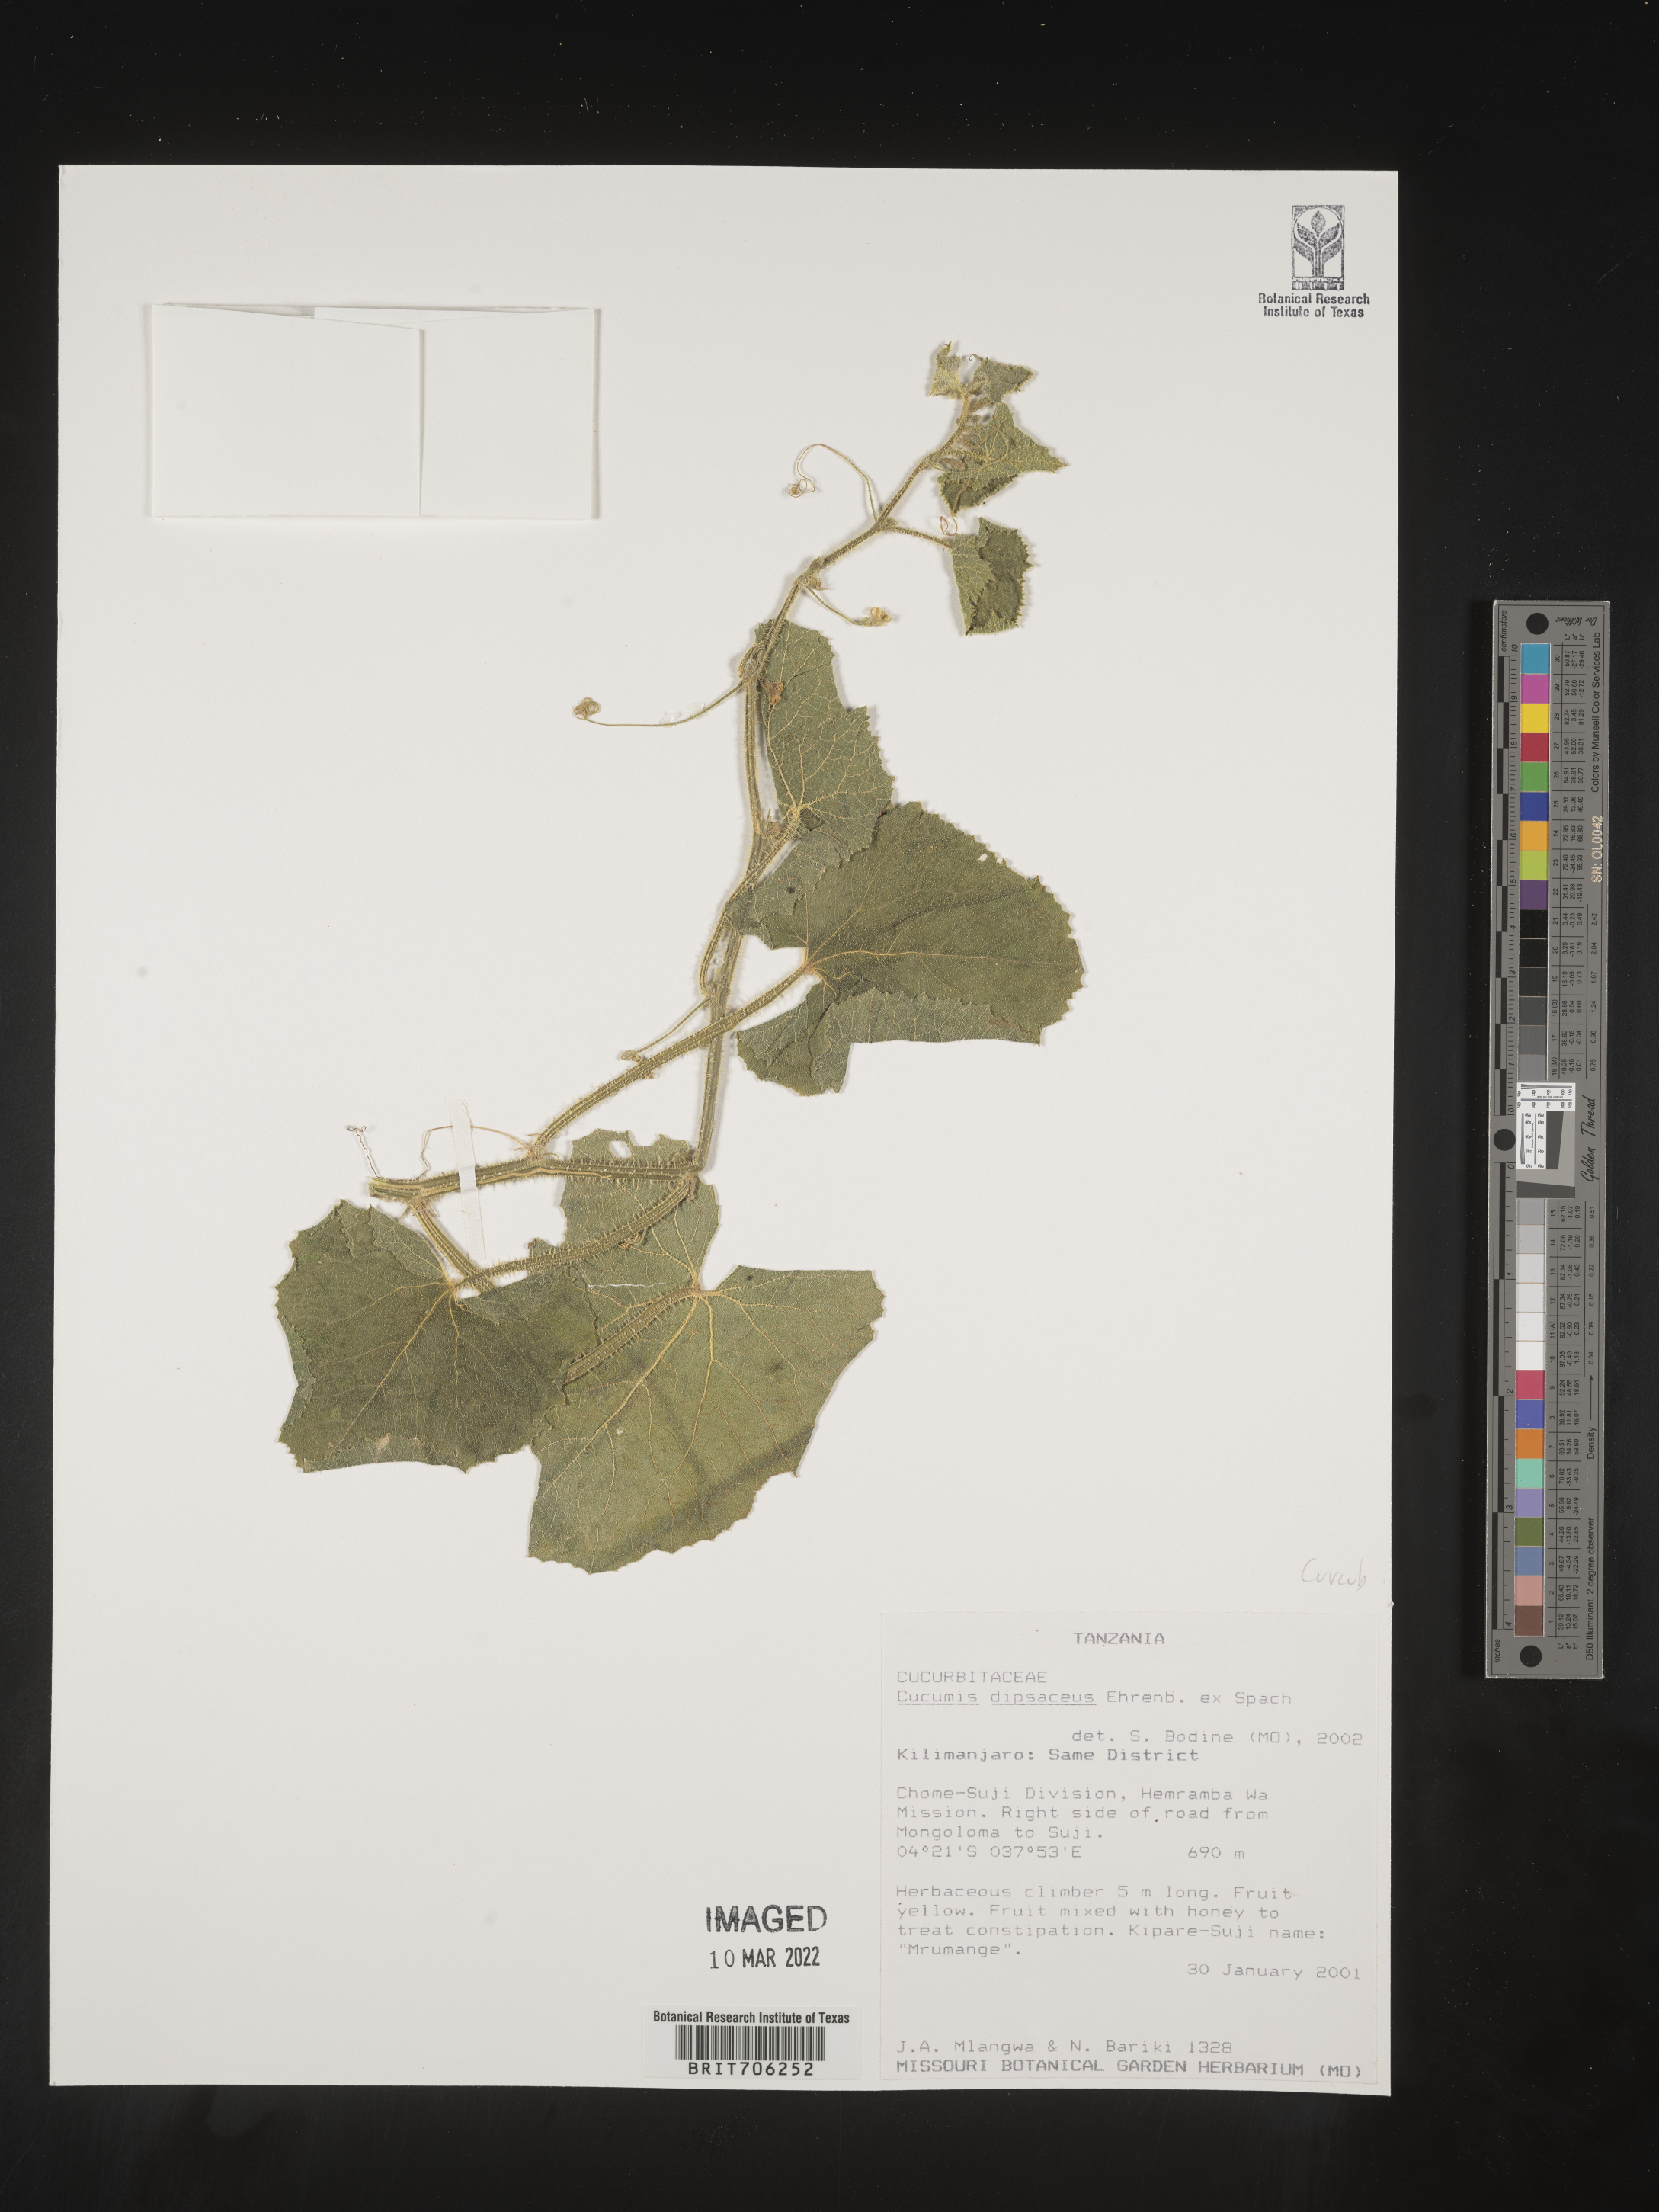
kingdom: Plantae
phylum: Tracheophyta
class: Magnoliopsida
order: Cucurbitales
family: Cucurbitaceae
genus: Cucumis
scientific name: Cucumis
